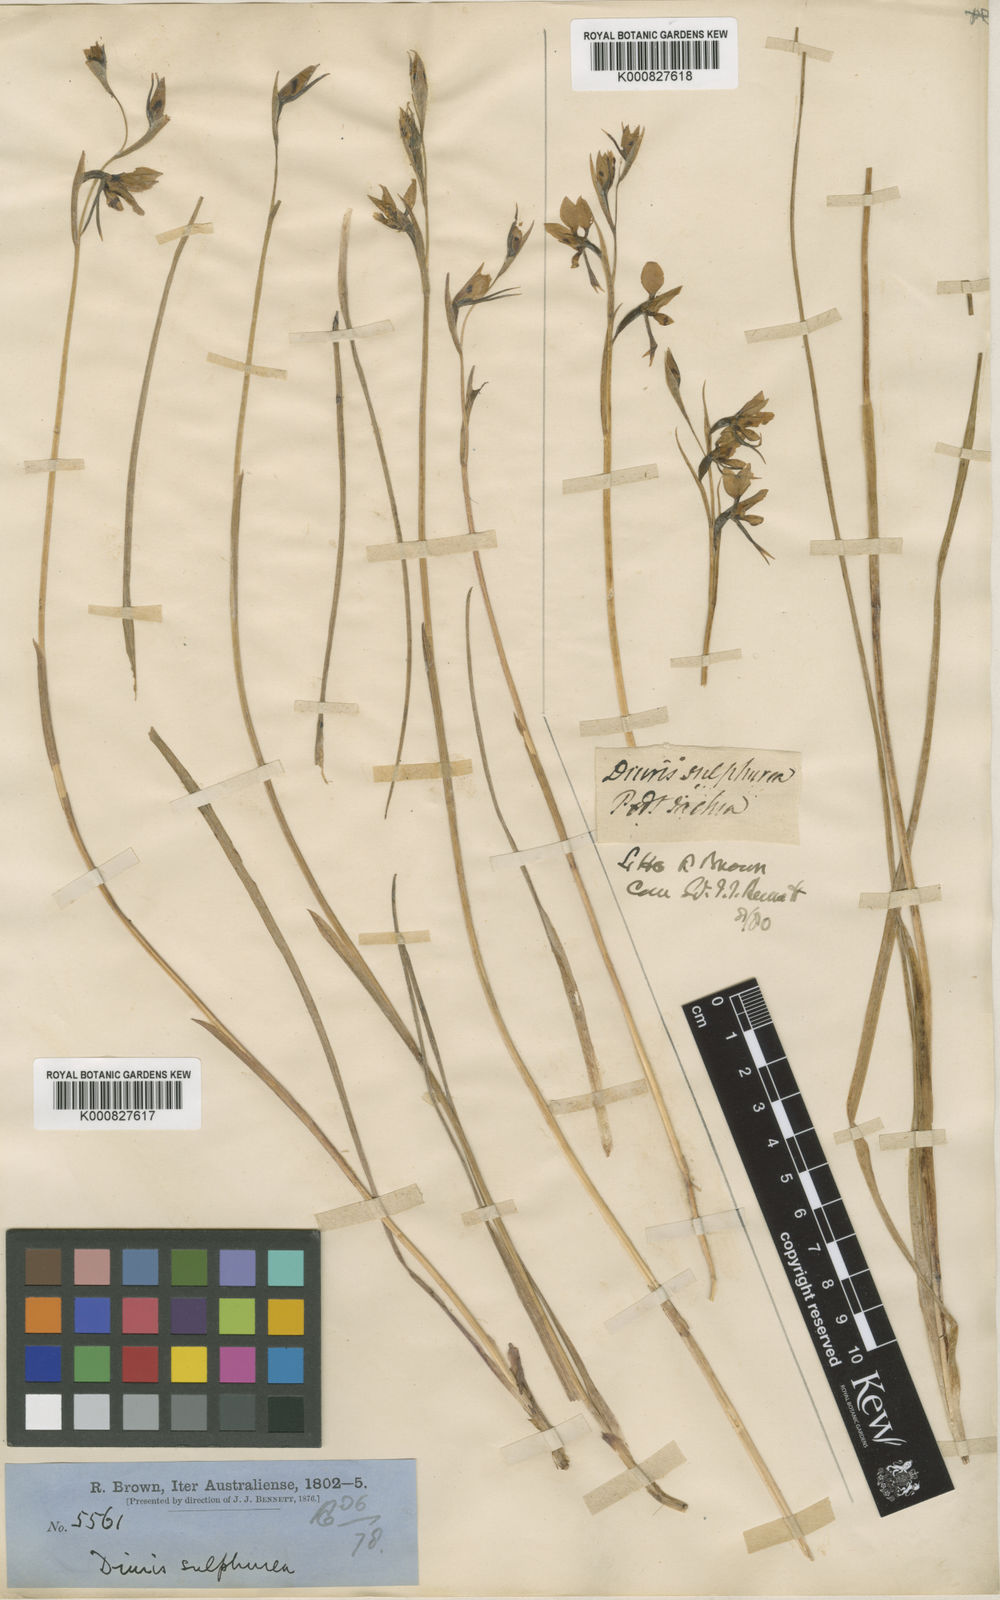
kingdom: Plantae
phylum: Tracheophyta
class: Liliopsida
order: Asparagales
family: Orchidaceae
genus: Diuris
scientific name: Diuris sulphurea
